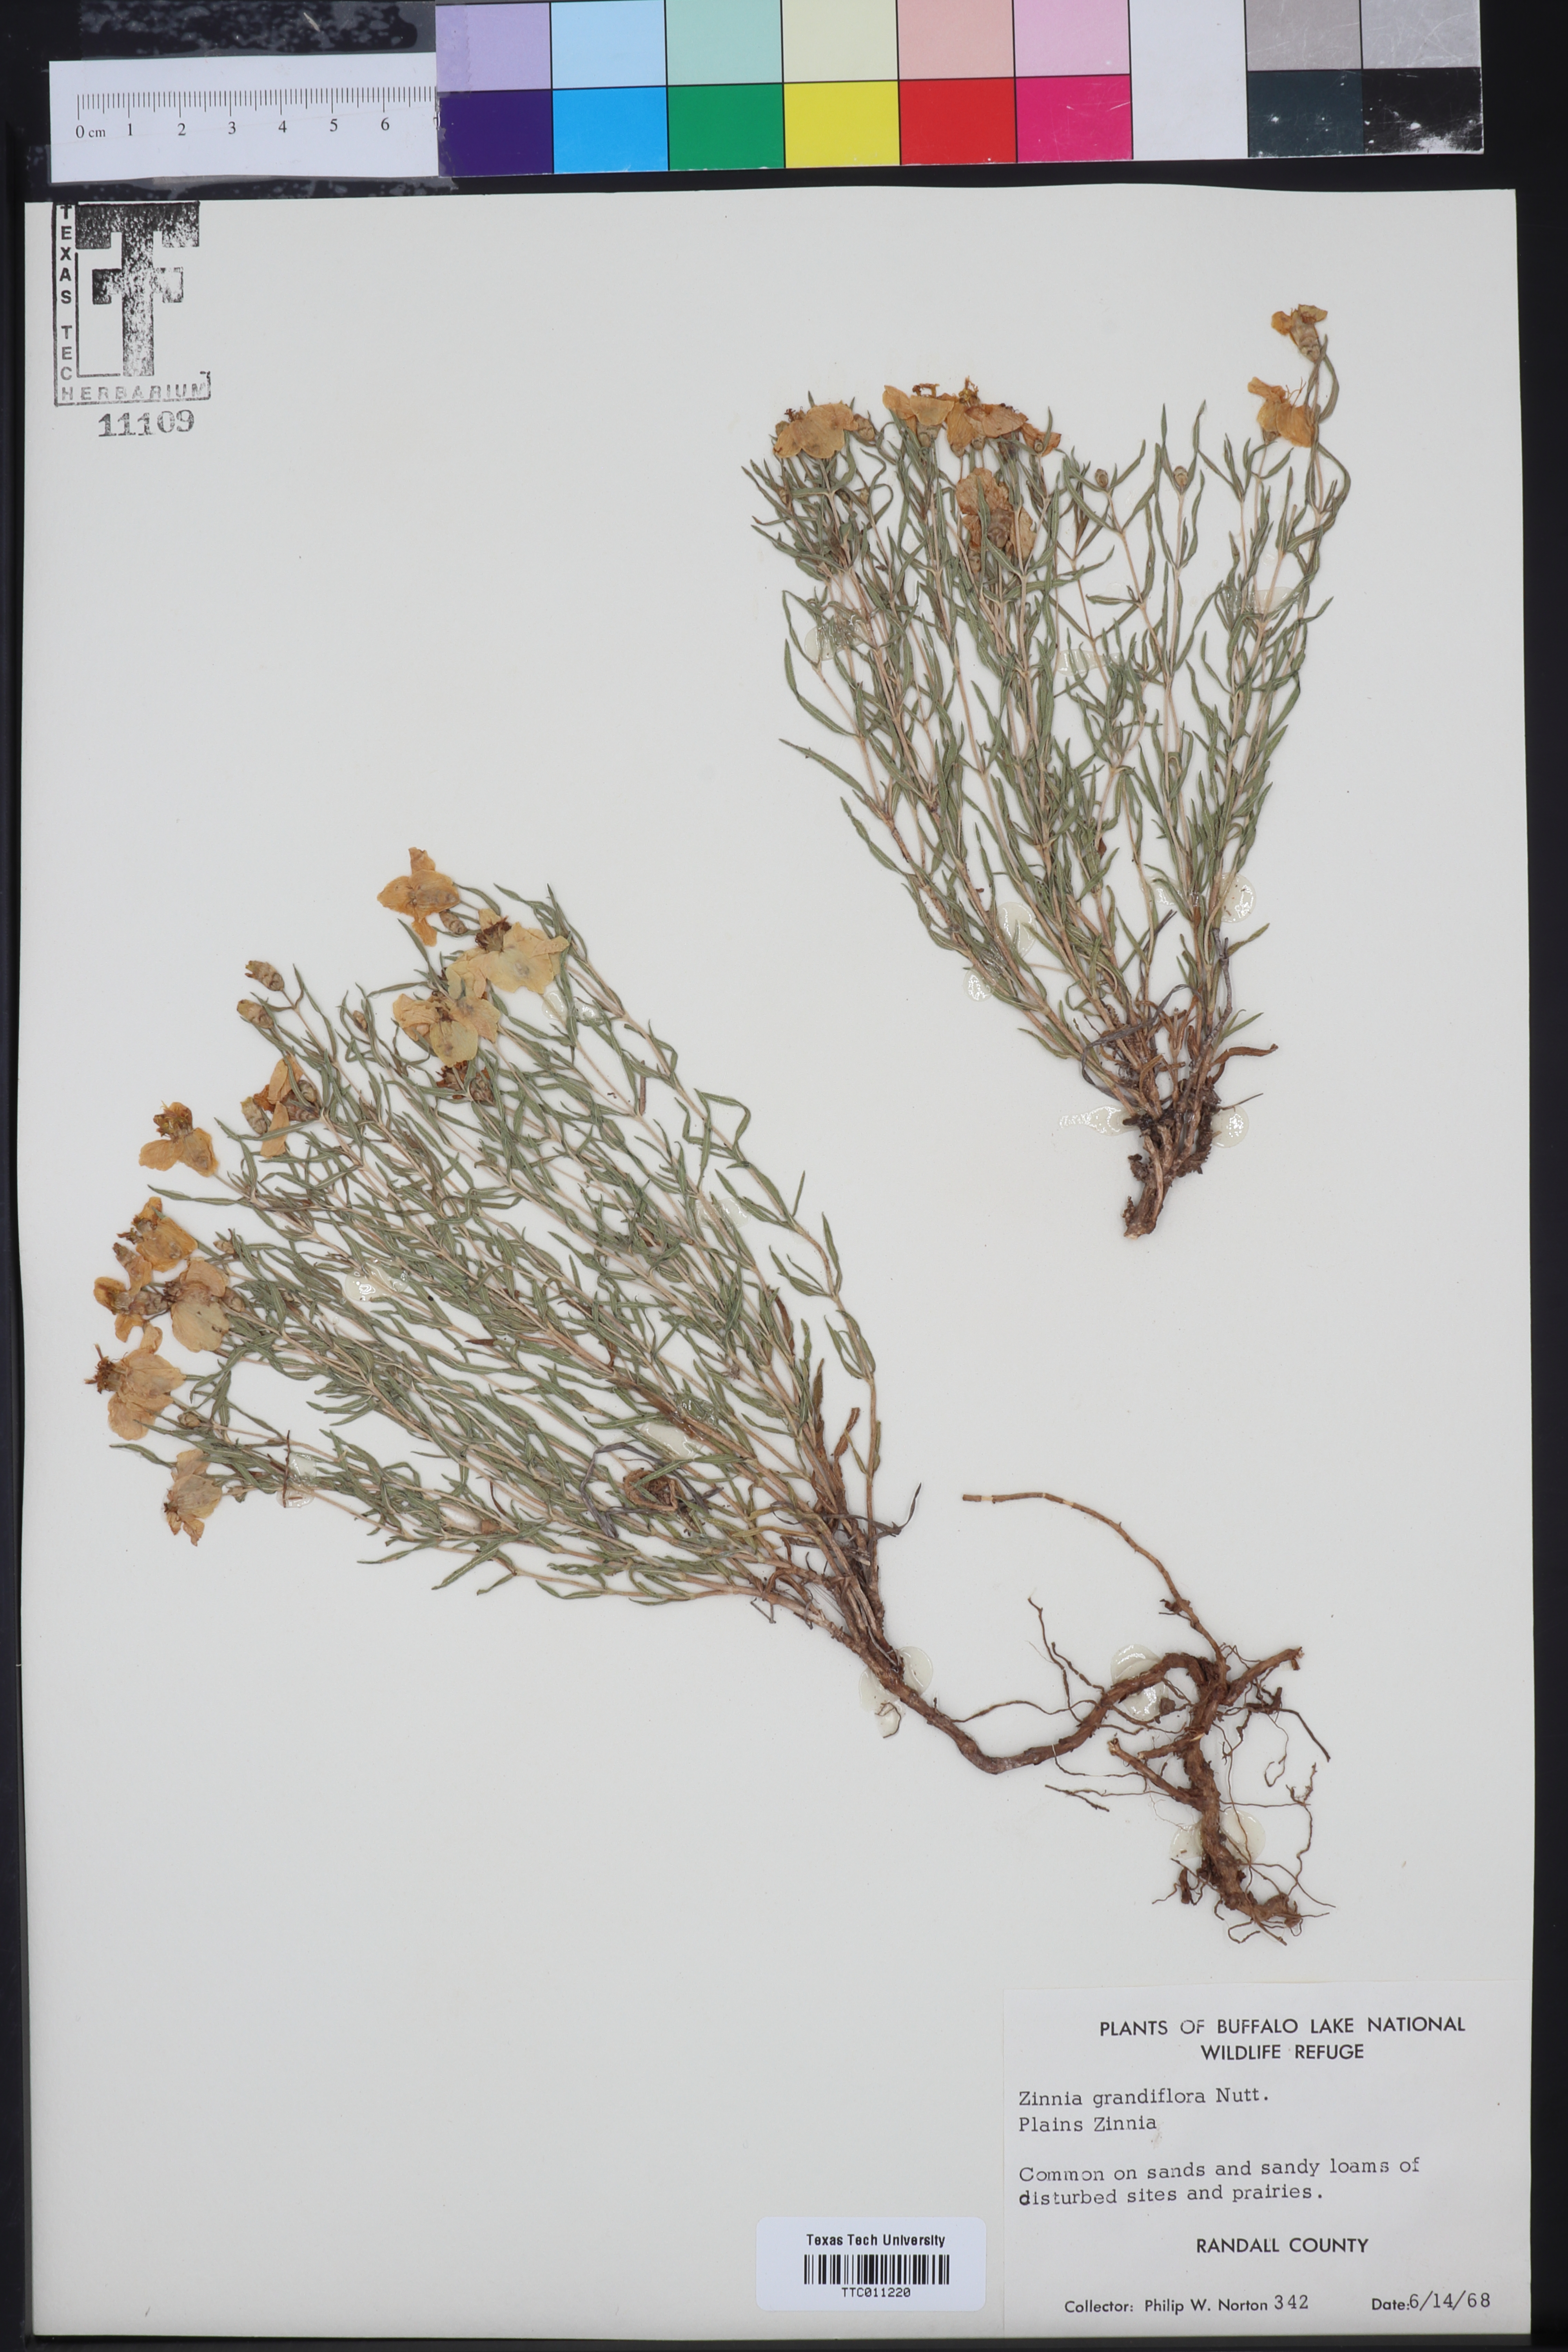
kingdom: Plantae
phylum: Tracheophyta
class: Magnoliopsida
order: Asterales
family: Asteraceae
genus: Zinnia
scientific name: Zinnia grandiflora
